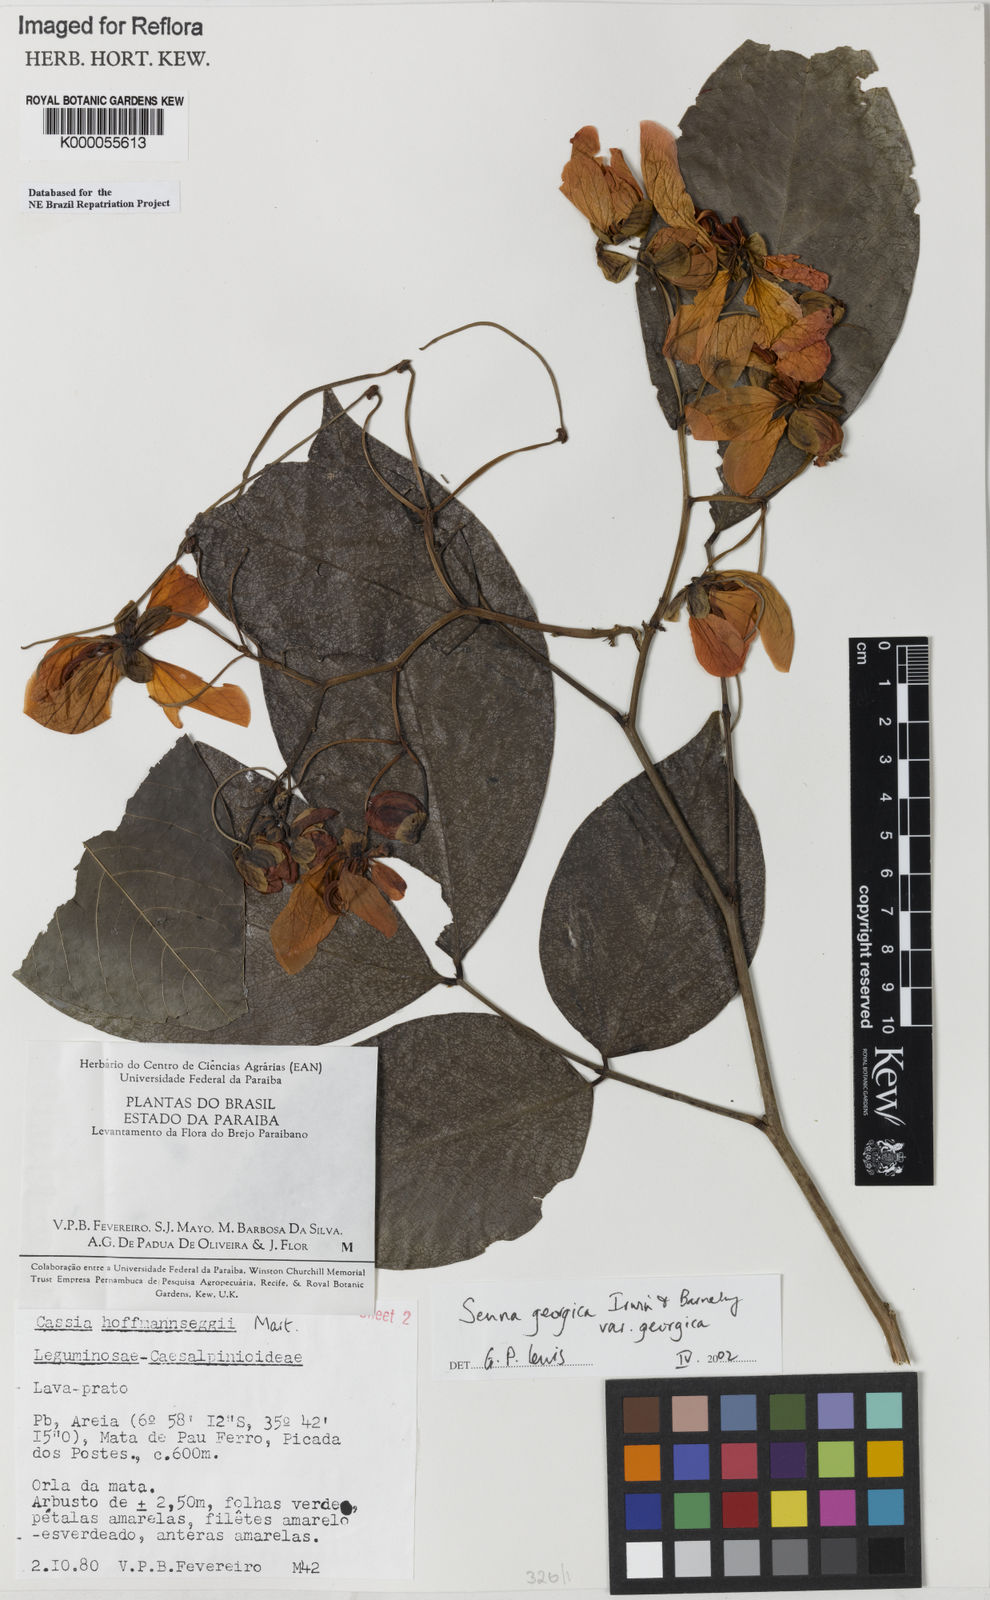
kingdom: Plantae
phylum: Tracheophyta
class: Magnoliopsida
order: Fabales
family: Fabaceae
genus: Senna
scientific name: Senna georgica
